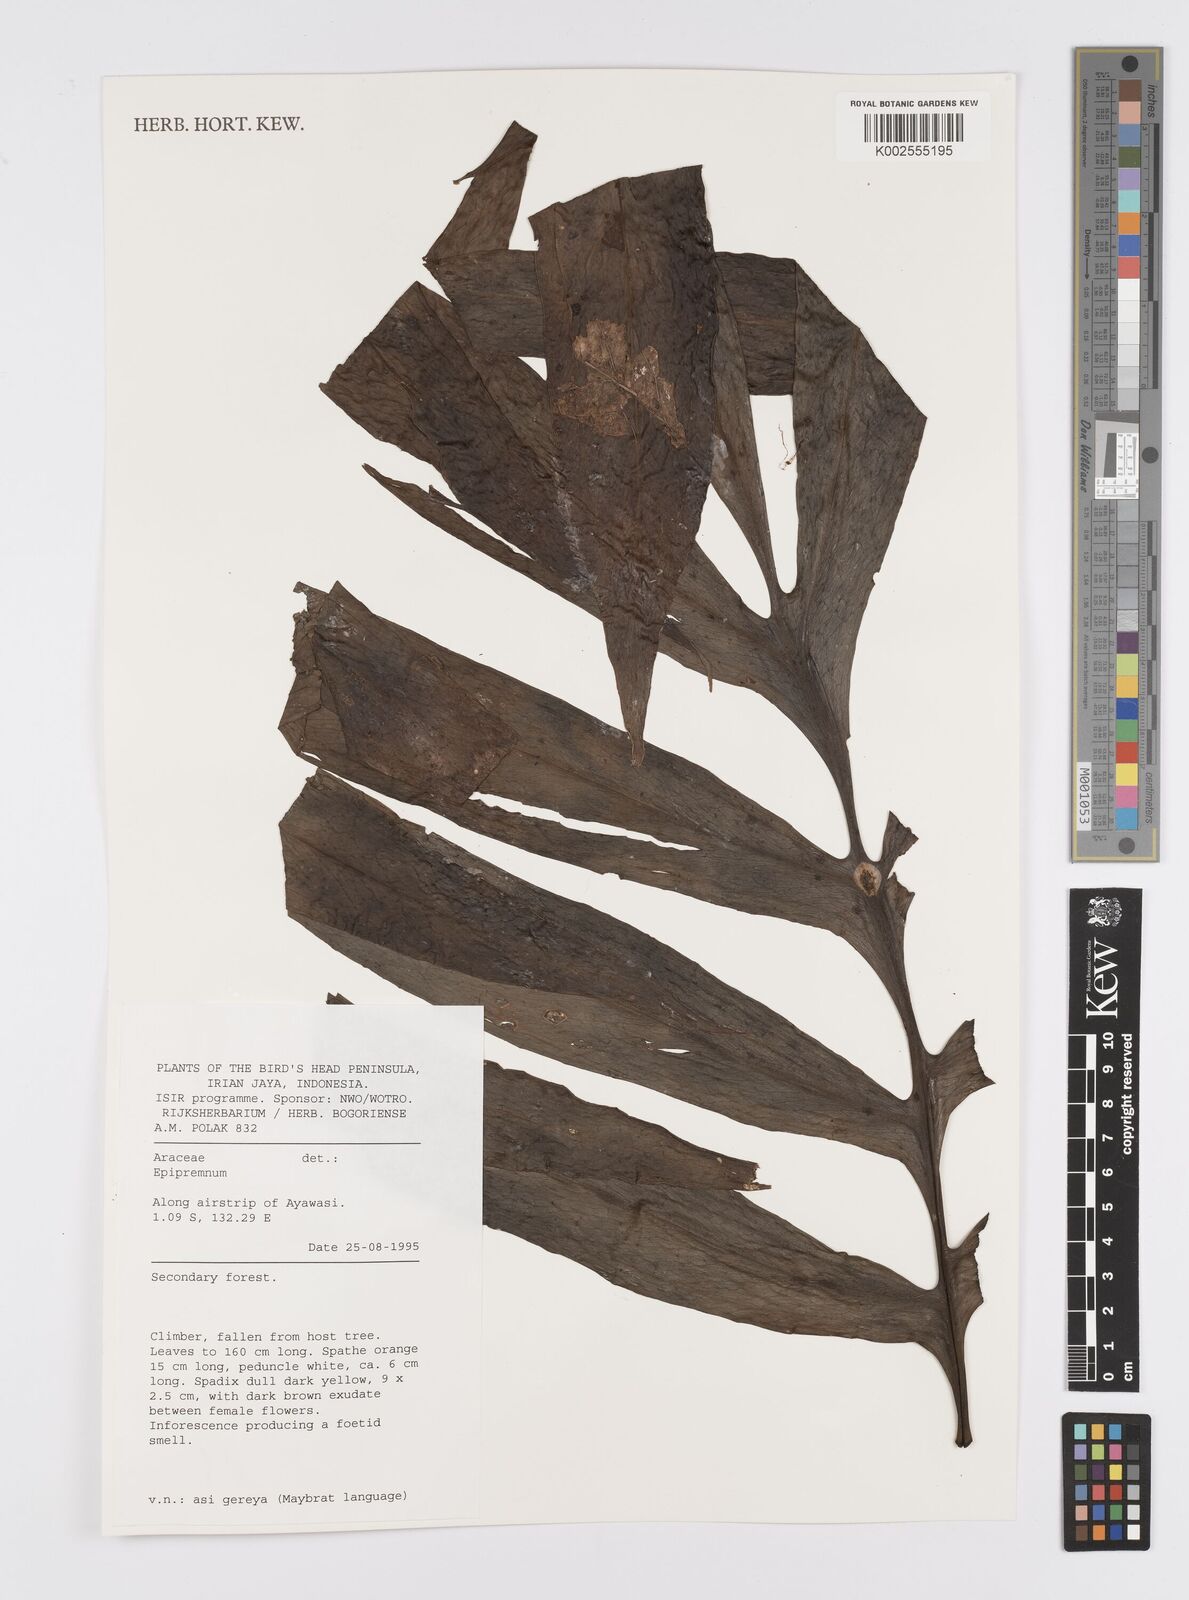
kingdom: Plantae
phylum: Tracheophyta
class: Liliopsida
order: Alismatales
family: Araceae
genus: Amydrium
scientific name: Amydrium zippelianum
